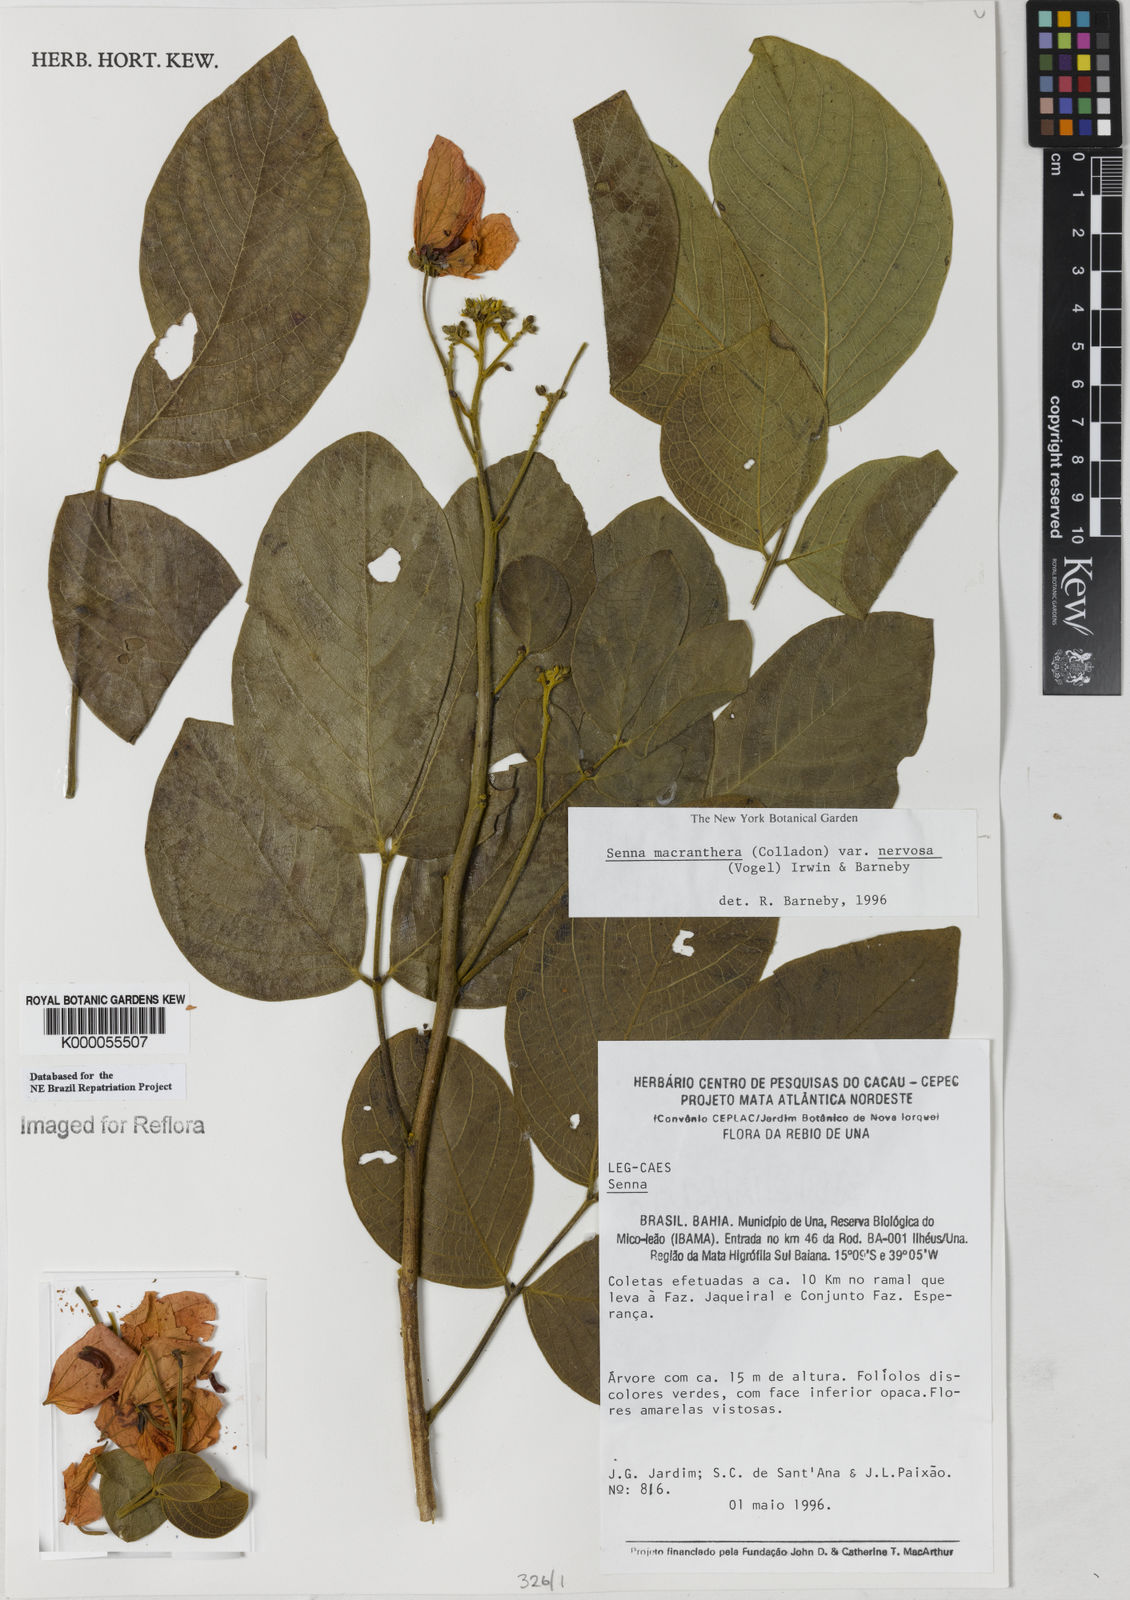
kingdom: Plantae
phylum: Tracheophyta
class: Magnoliopsida
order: Fabales
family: Fabaceae
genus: Senna
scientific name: Senna macranthera
